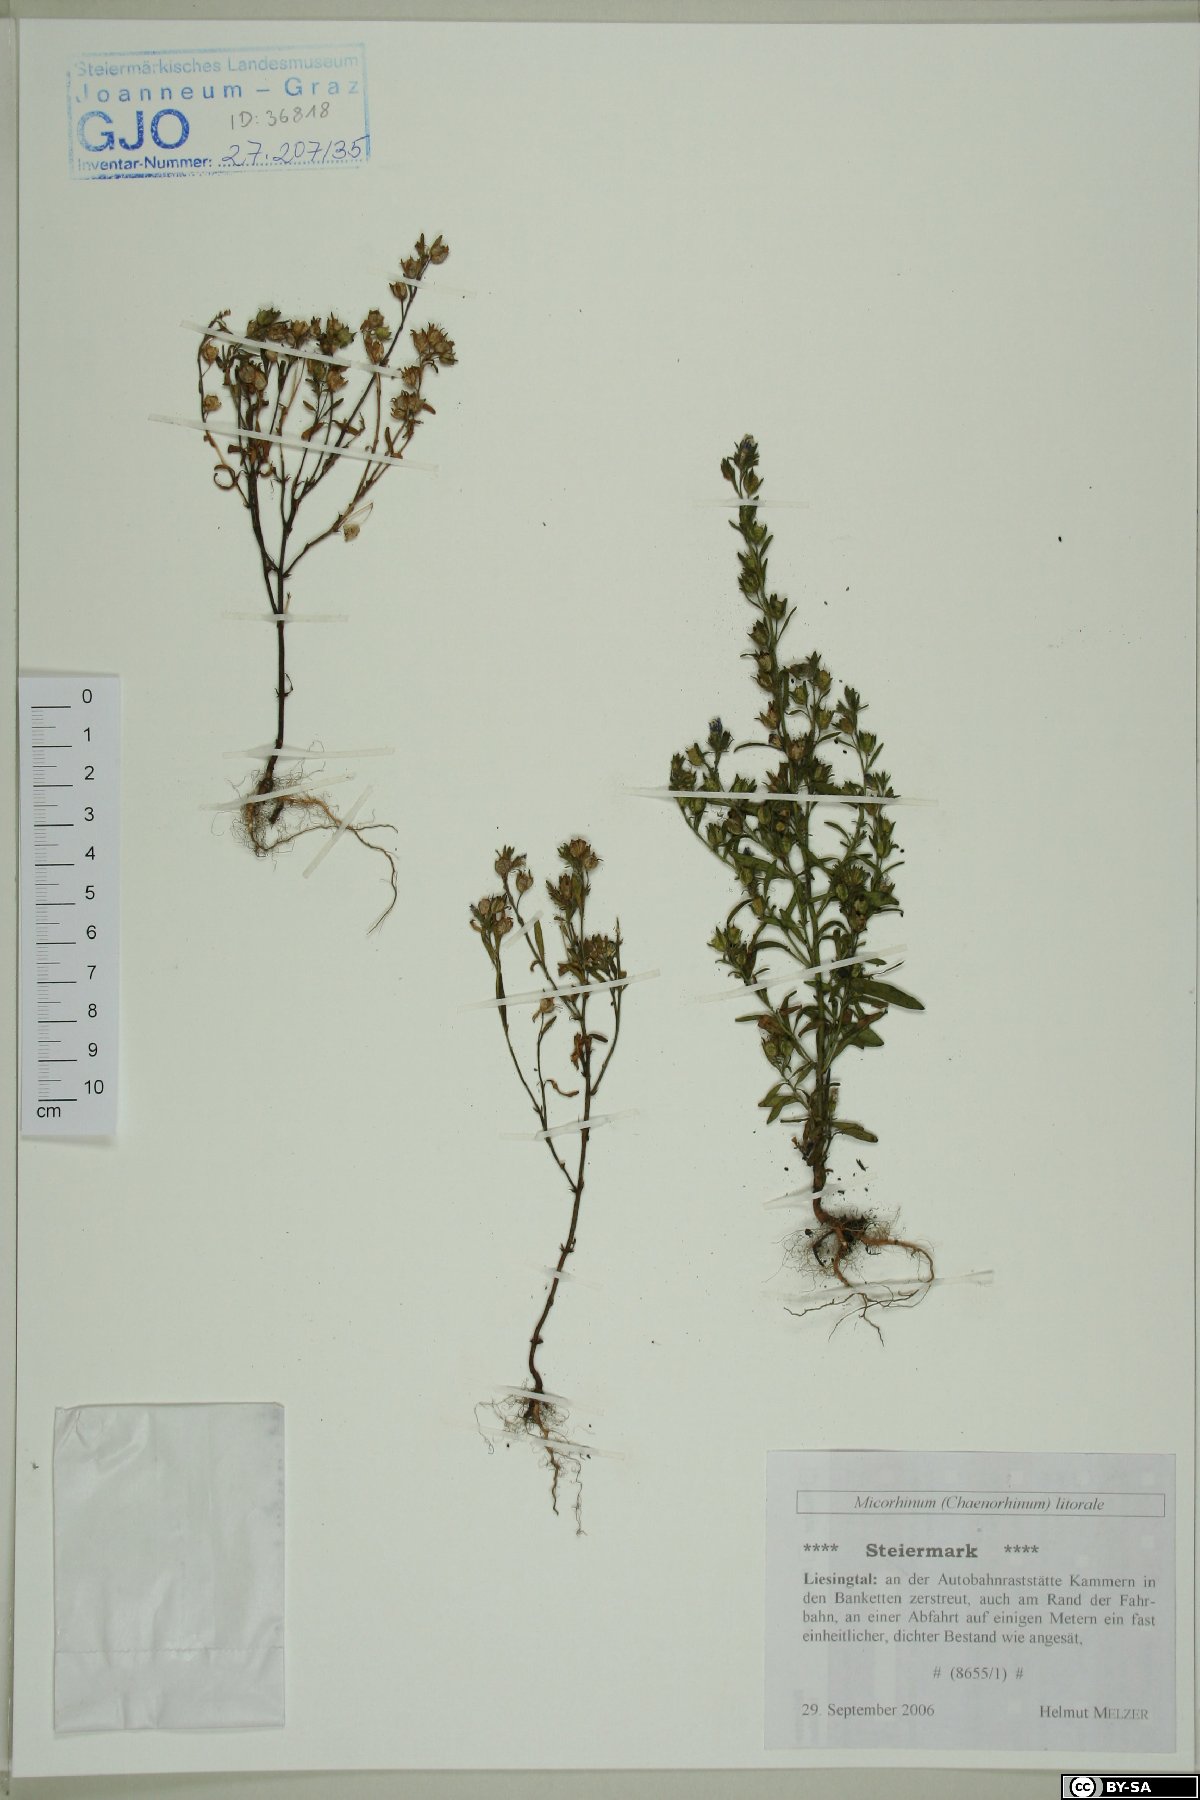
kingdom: Plantae
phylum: Tracheophyta
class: Magnoliopsida
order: Lamiales
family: Plantaginaceae
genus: Chaenorhinum
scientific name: Chaenorhinum litorale
